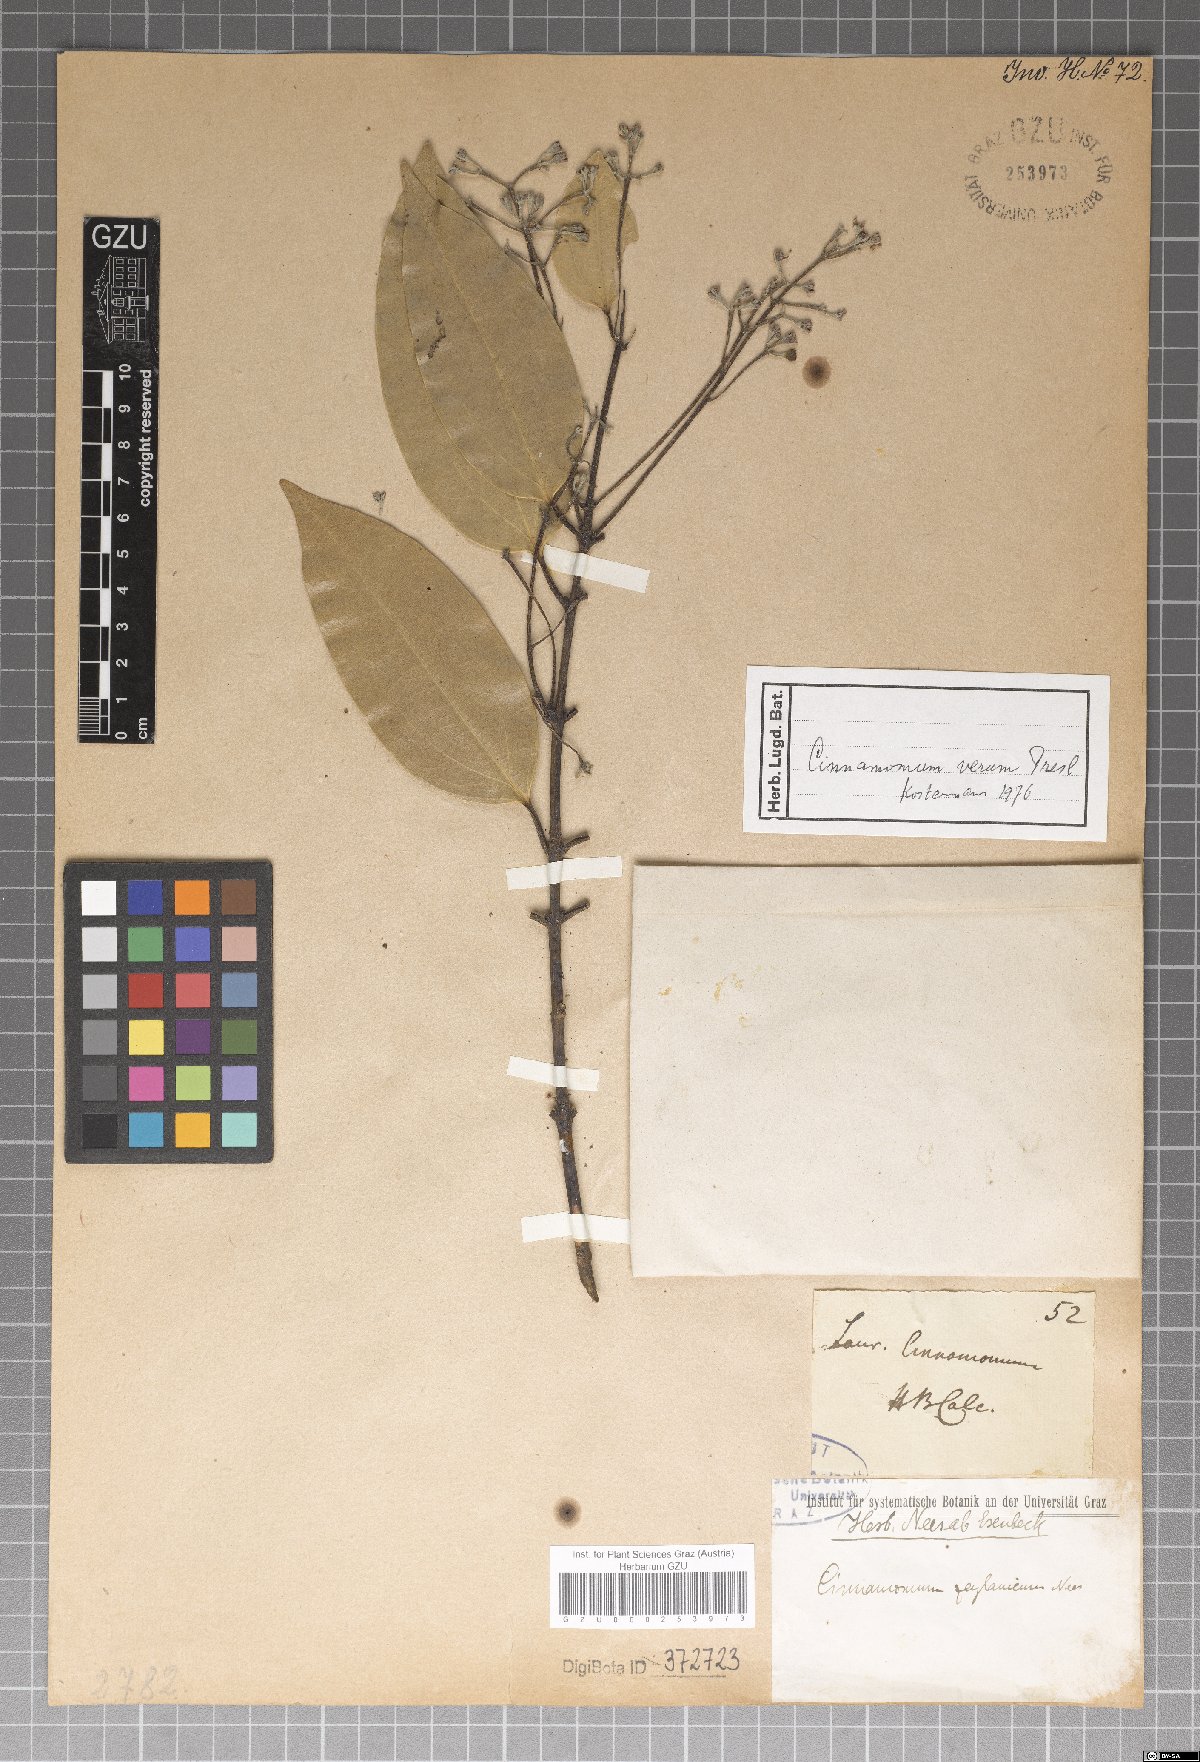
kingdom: Plantae
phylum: Tracheophyta
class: Magnoliopsida
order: Laurales
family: Lauraceae
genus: Cinnamomum
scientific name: Cinnamomum verum
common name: Cinnamon
